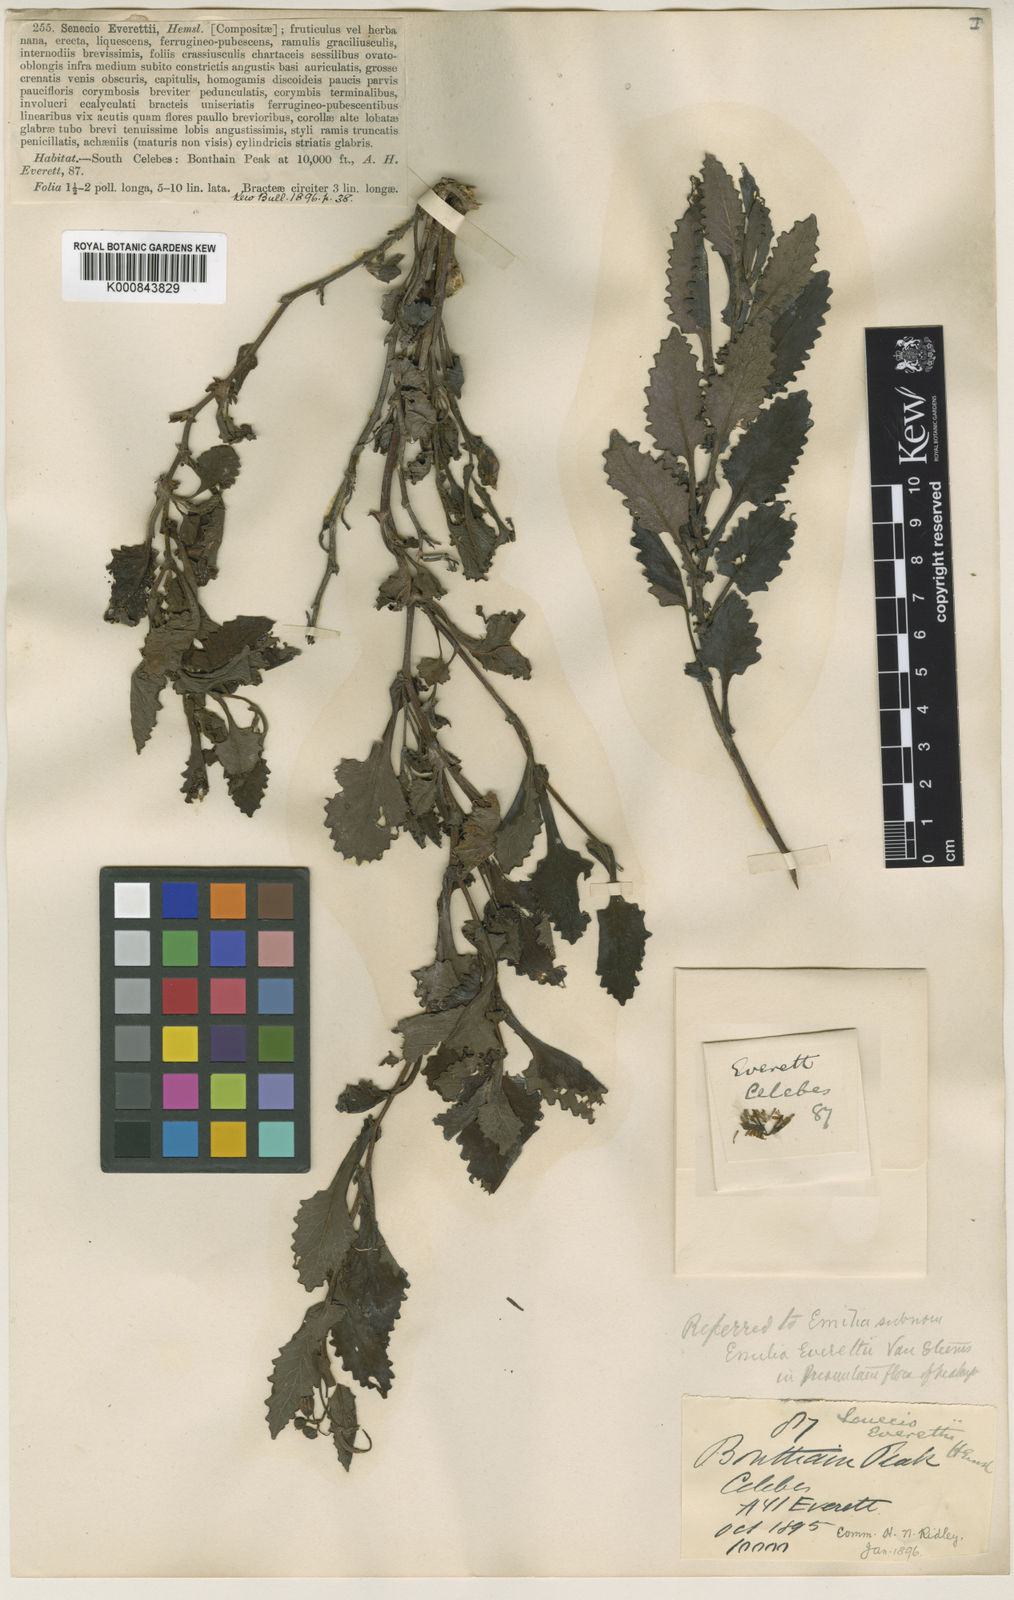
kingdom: Plantae
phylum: Tracheophyta
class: Magnoliopsida
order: Asterales
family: Asteraceae
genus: Emilia
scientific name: Emilia everettii
